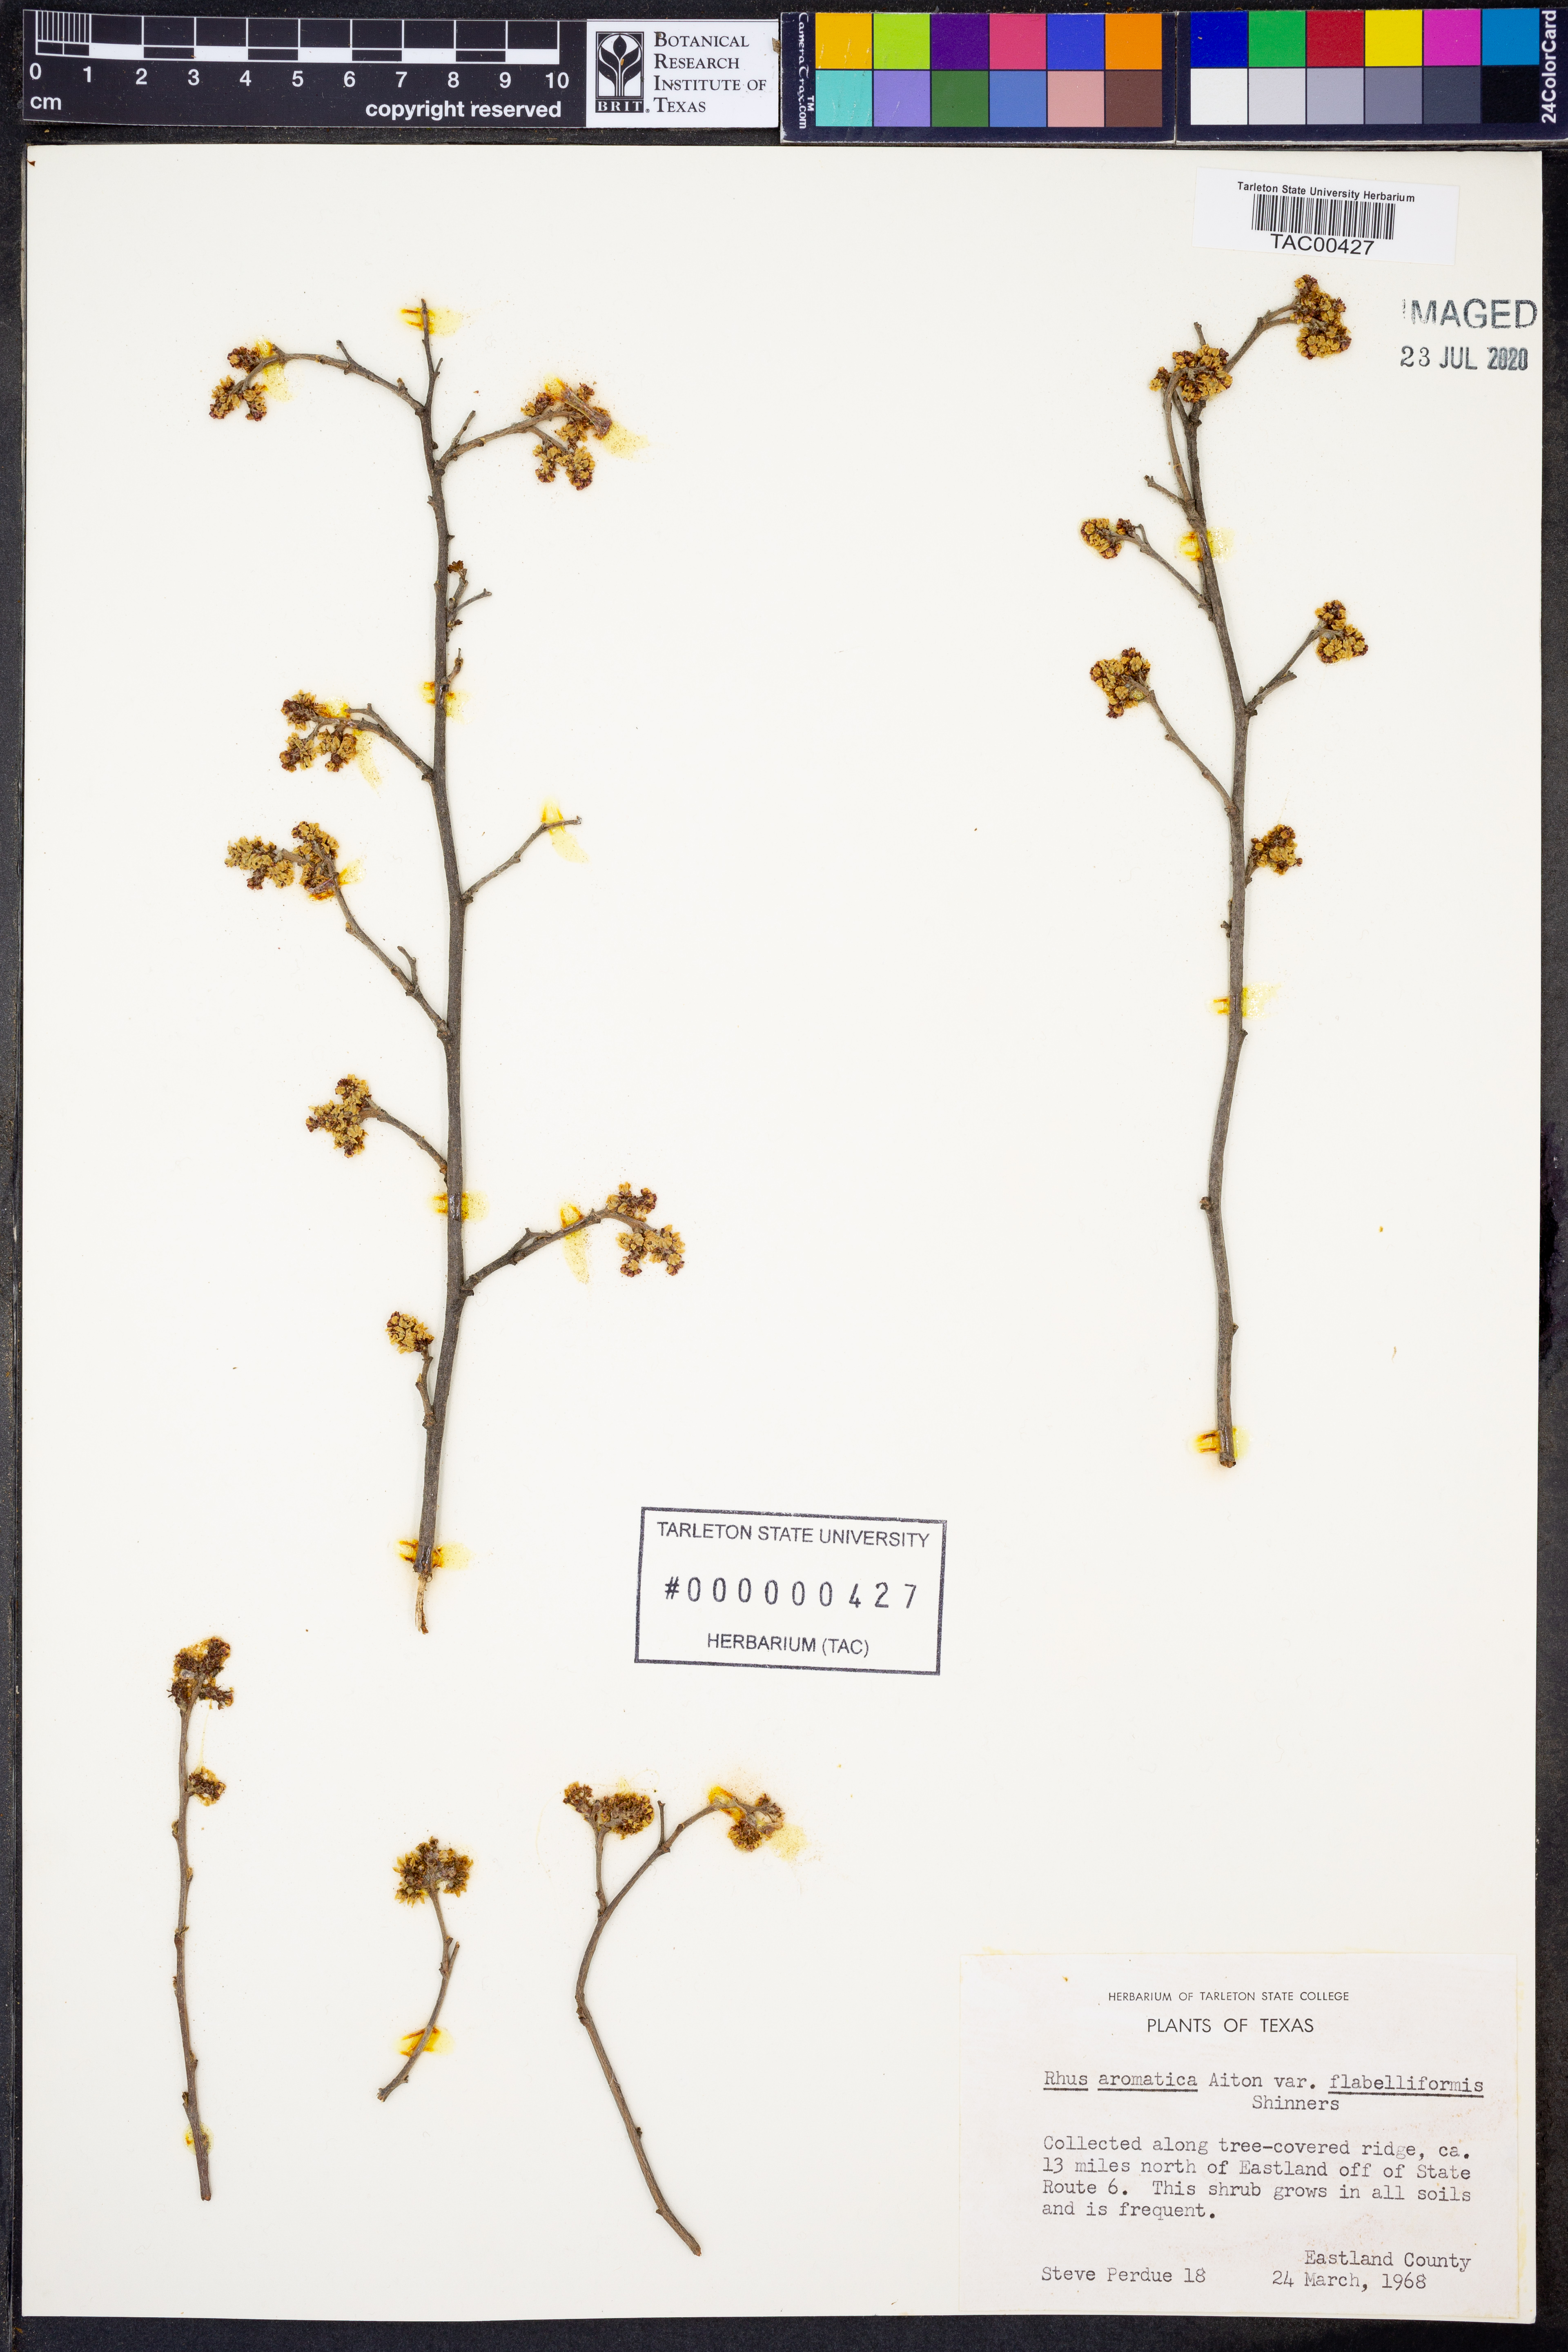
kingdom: Plantae
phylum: Tracheophyta
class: Magnoliopsida
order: Sapindales
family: Anacardiaceae
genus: Rhus
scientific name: Rhus trilobata
